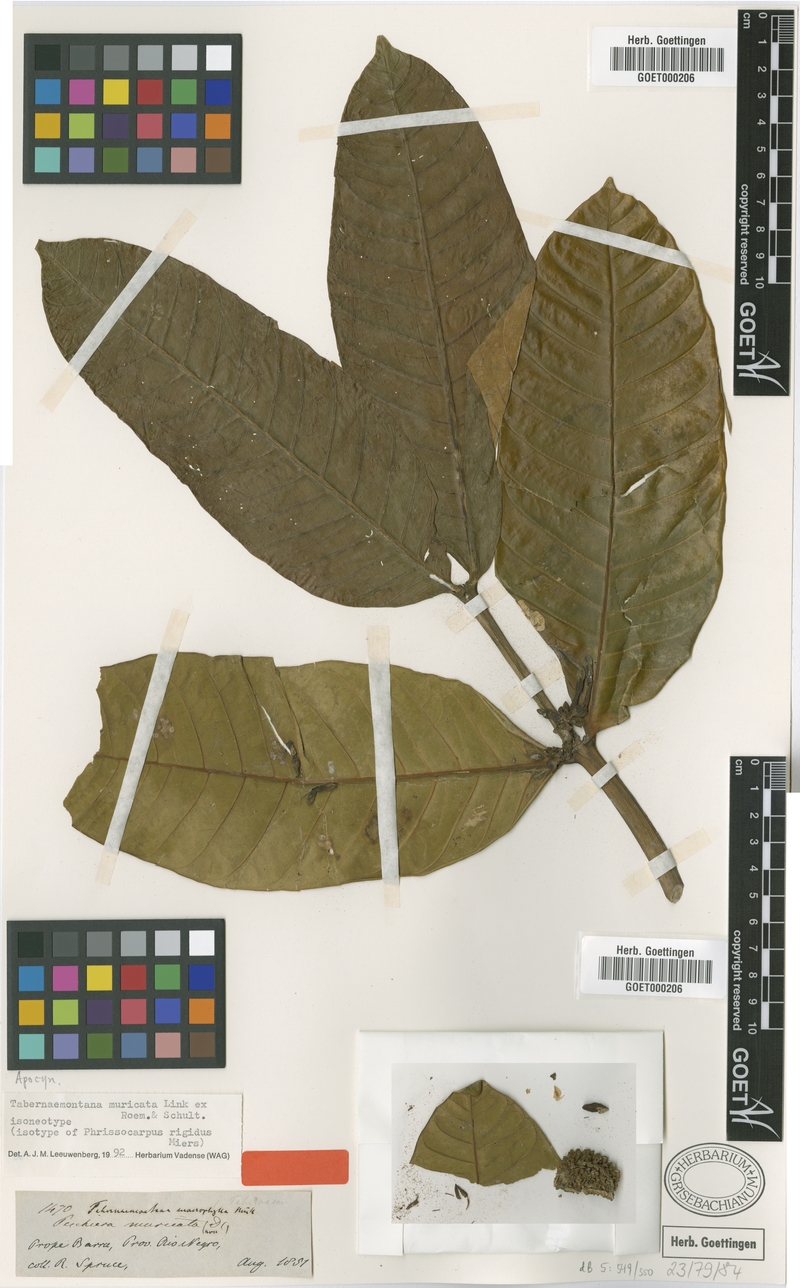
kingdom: Plantae
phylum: Tracheophyta
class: Magnoliopsida
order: Gentianales
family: Apocynaceae
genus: Tabernaemontana
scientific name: Tabernaemontana muricata
